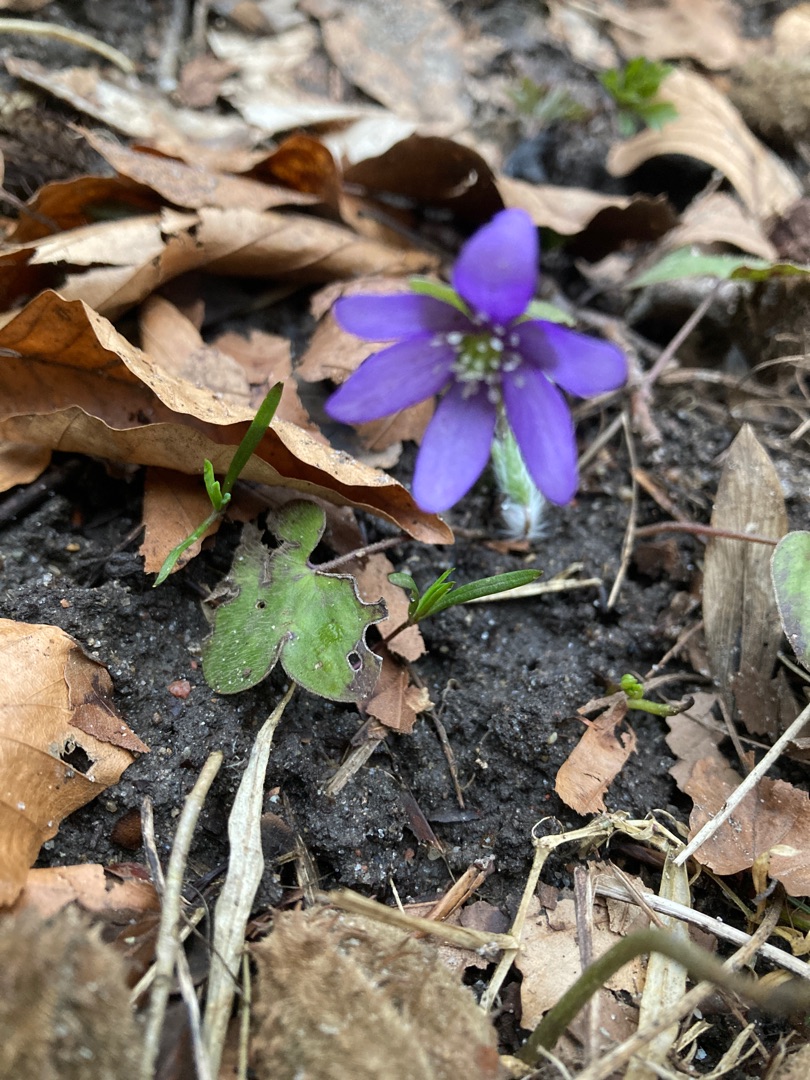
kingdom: Plantae
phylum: Tracheophyta
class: Magnoliopsida
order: Ranunculales
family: Ranunculaceae
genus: Hepatica
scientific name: Hepatica nobilis
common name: Blå anemone
